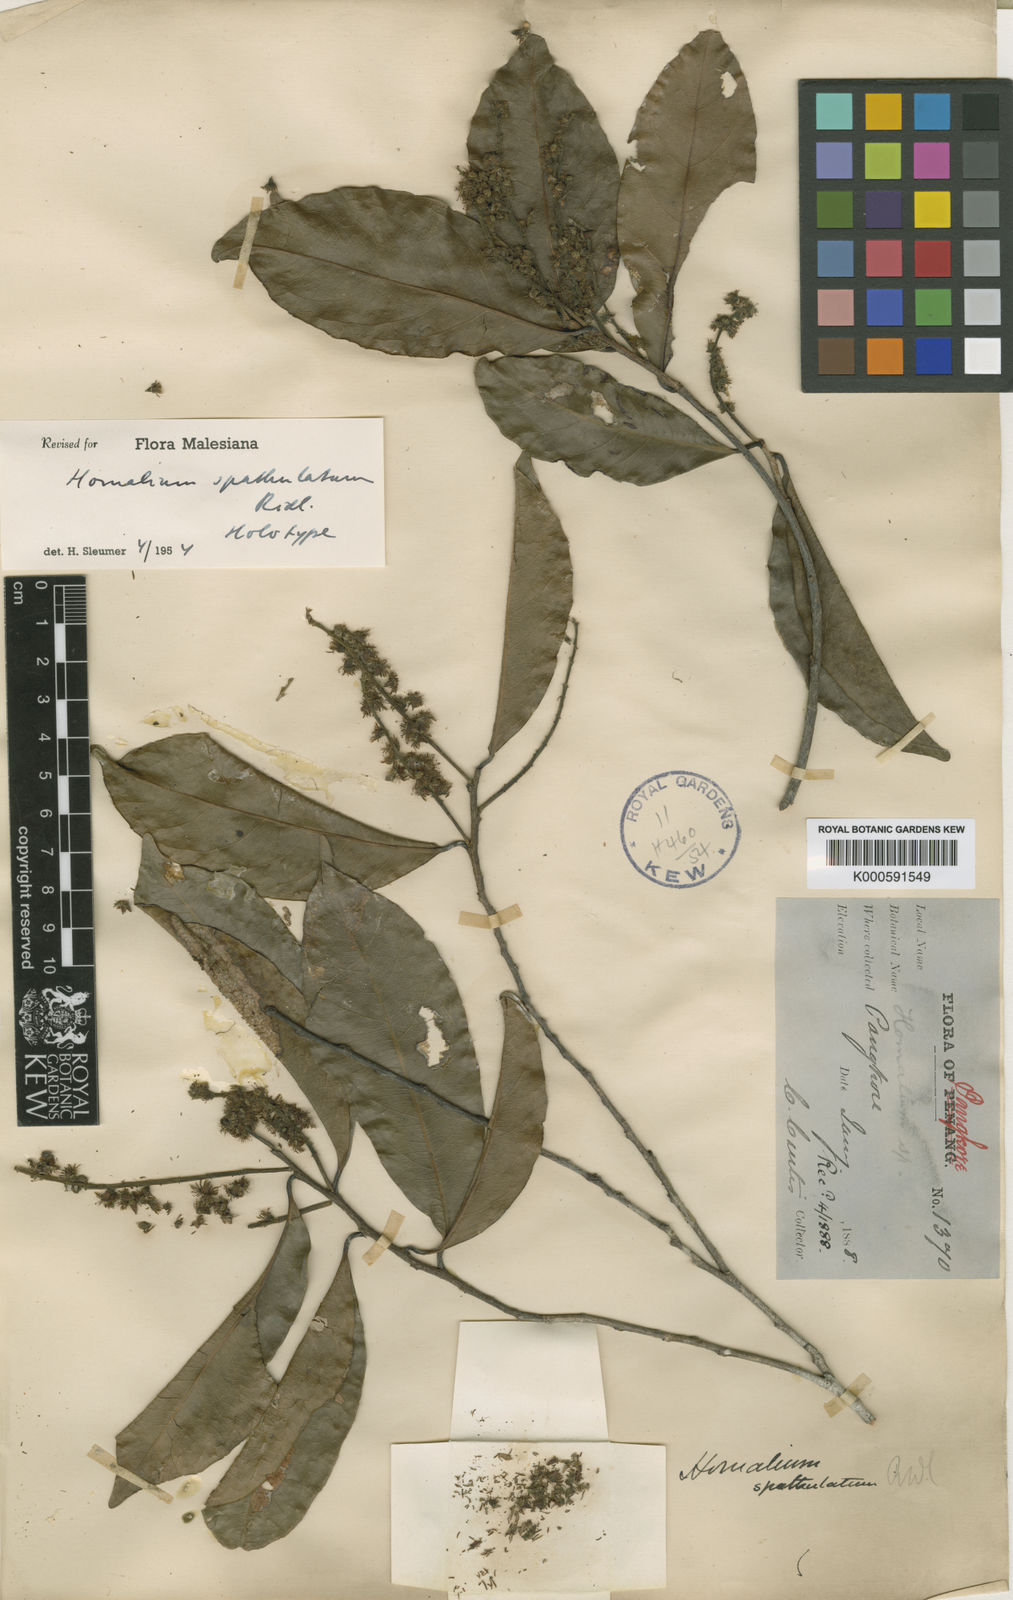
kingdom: Plantae
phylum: Tracheophyta
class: Magnoliopsida
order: Malpighiales
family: Salicaceae
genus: Homalium
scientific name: Homalium spathulatum
